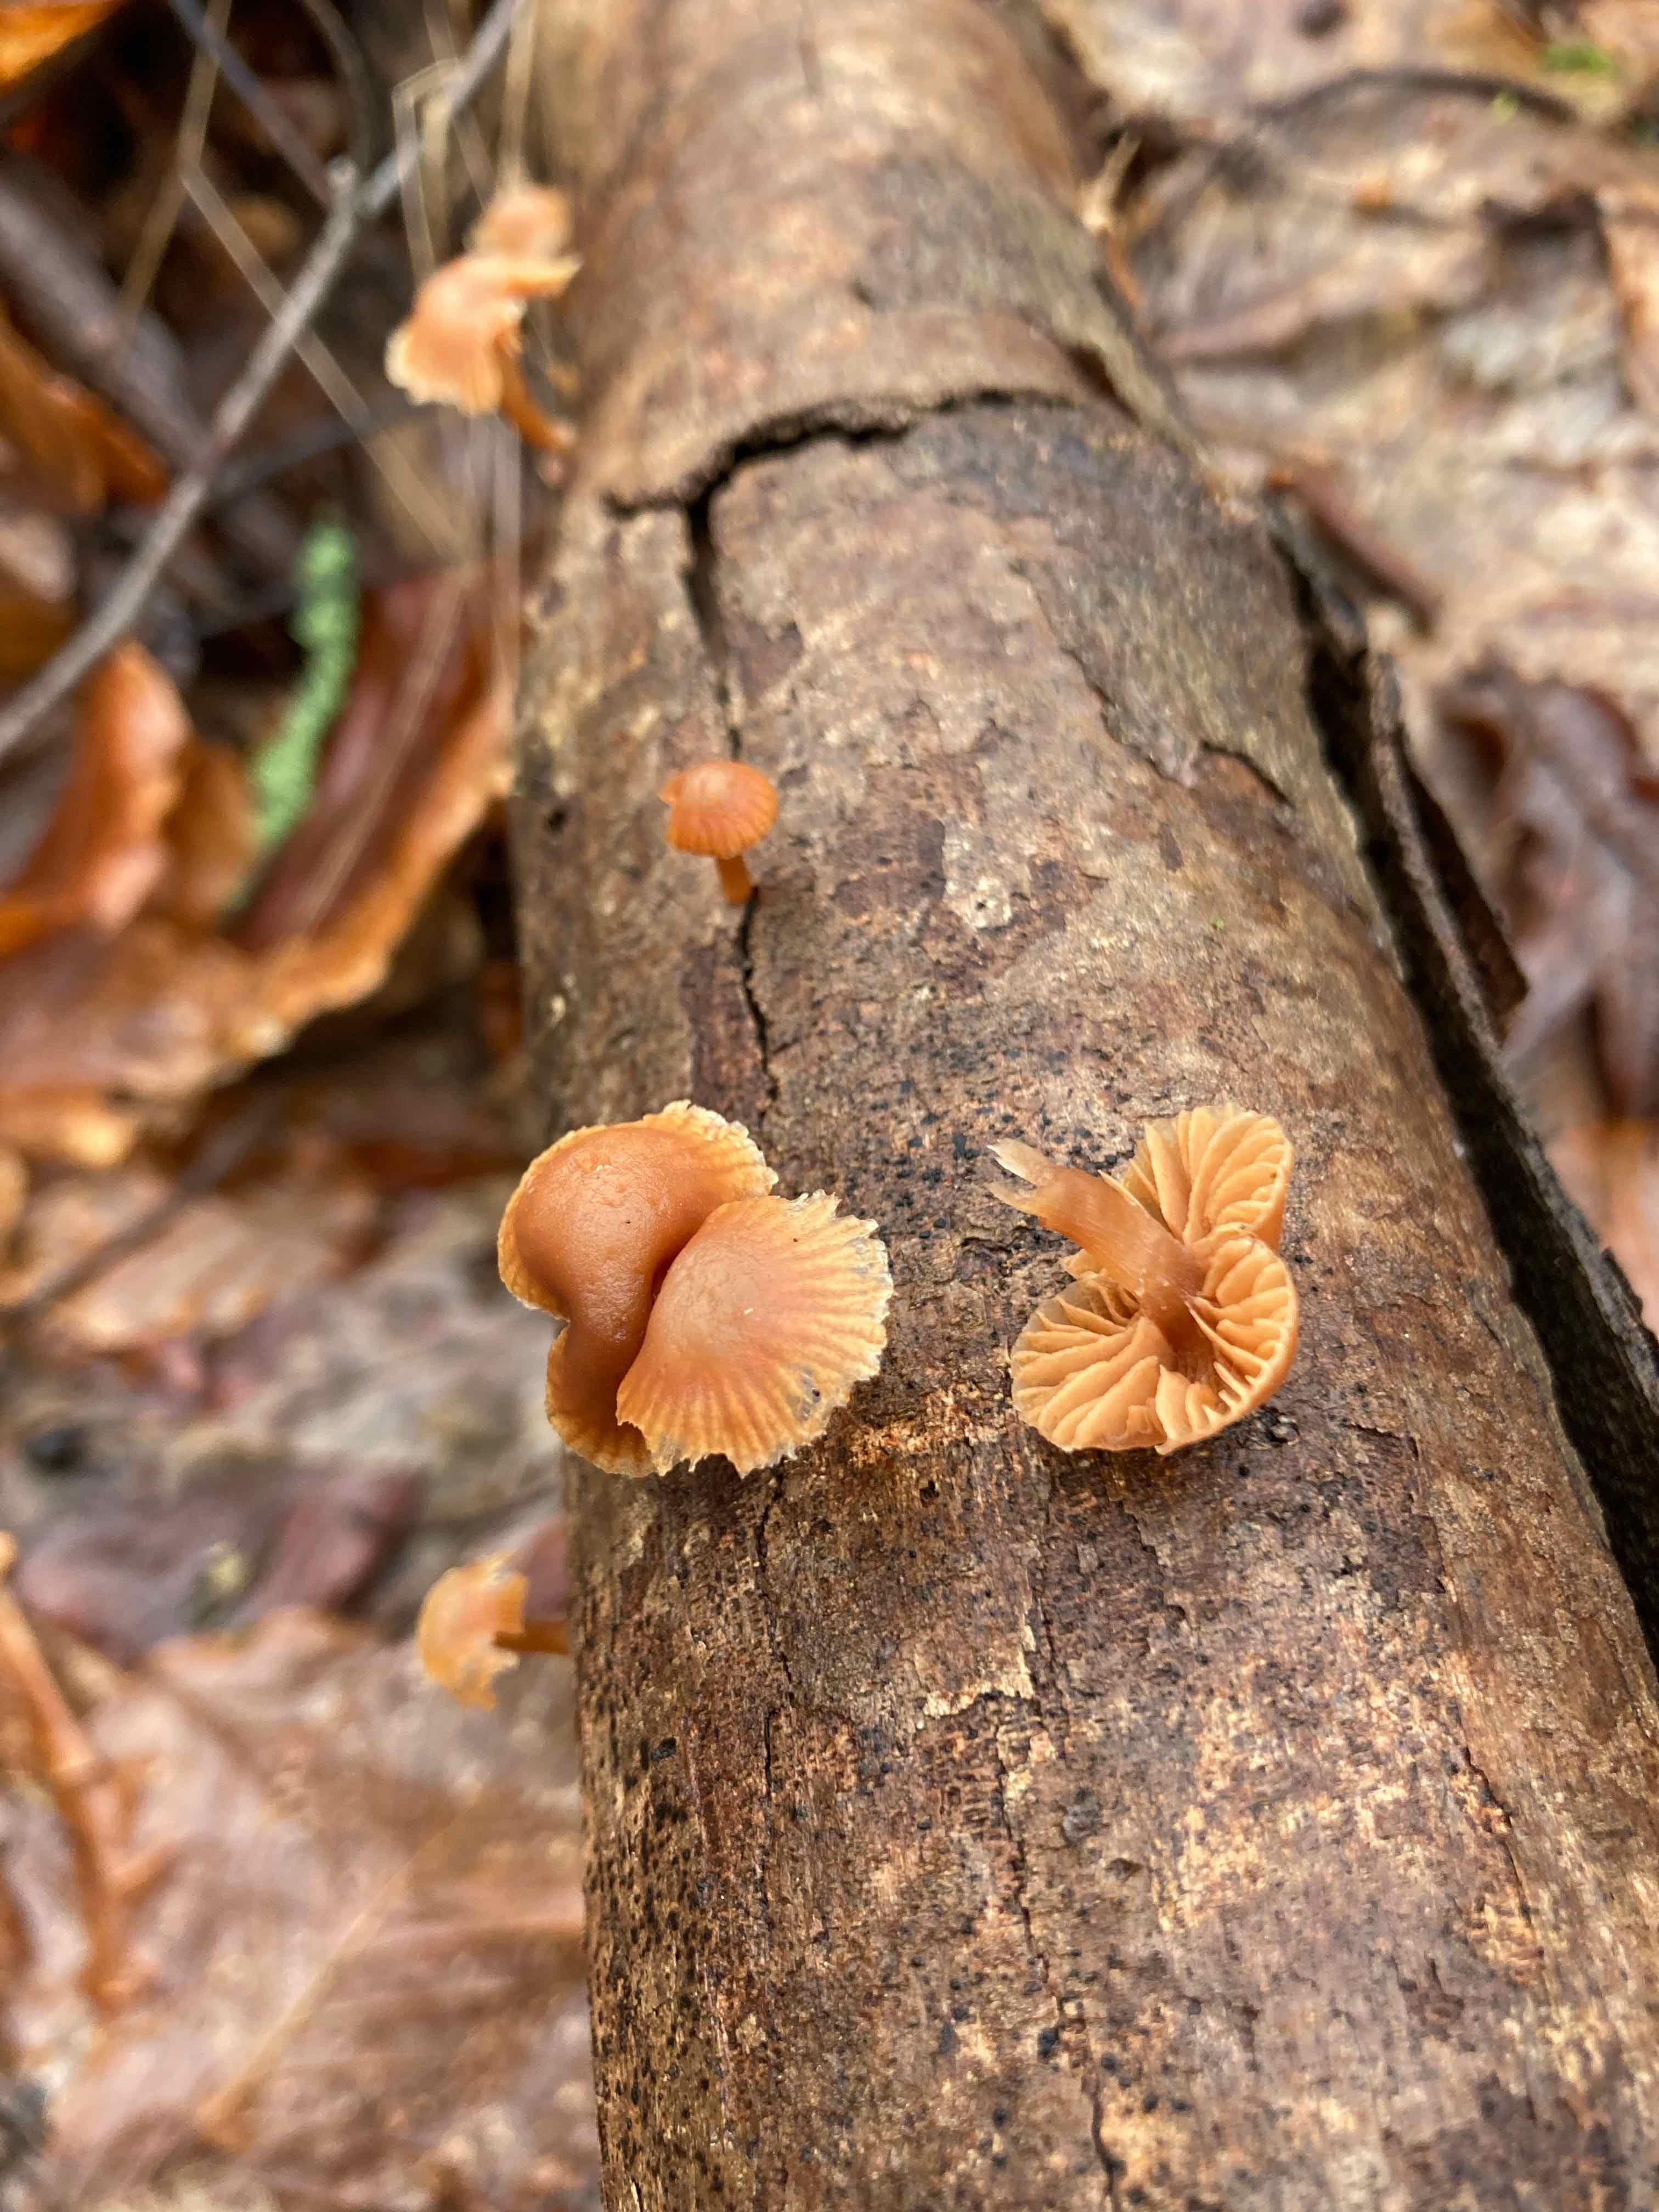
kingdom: Fungi
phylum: Basidiomycota
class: Agaricomycetes
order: Agaricales
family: Tubariaceae
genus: Tubaria
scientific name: Tubaria furfuracea
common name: kliddet fnughat
